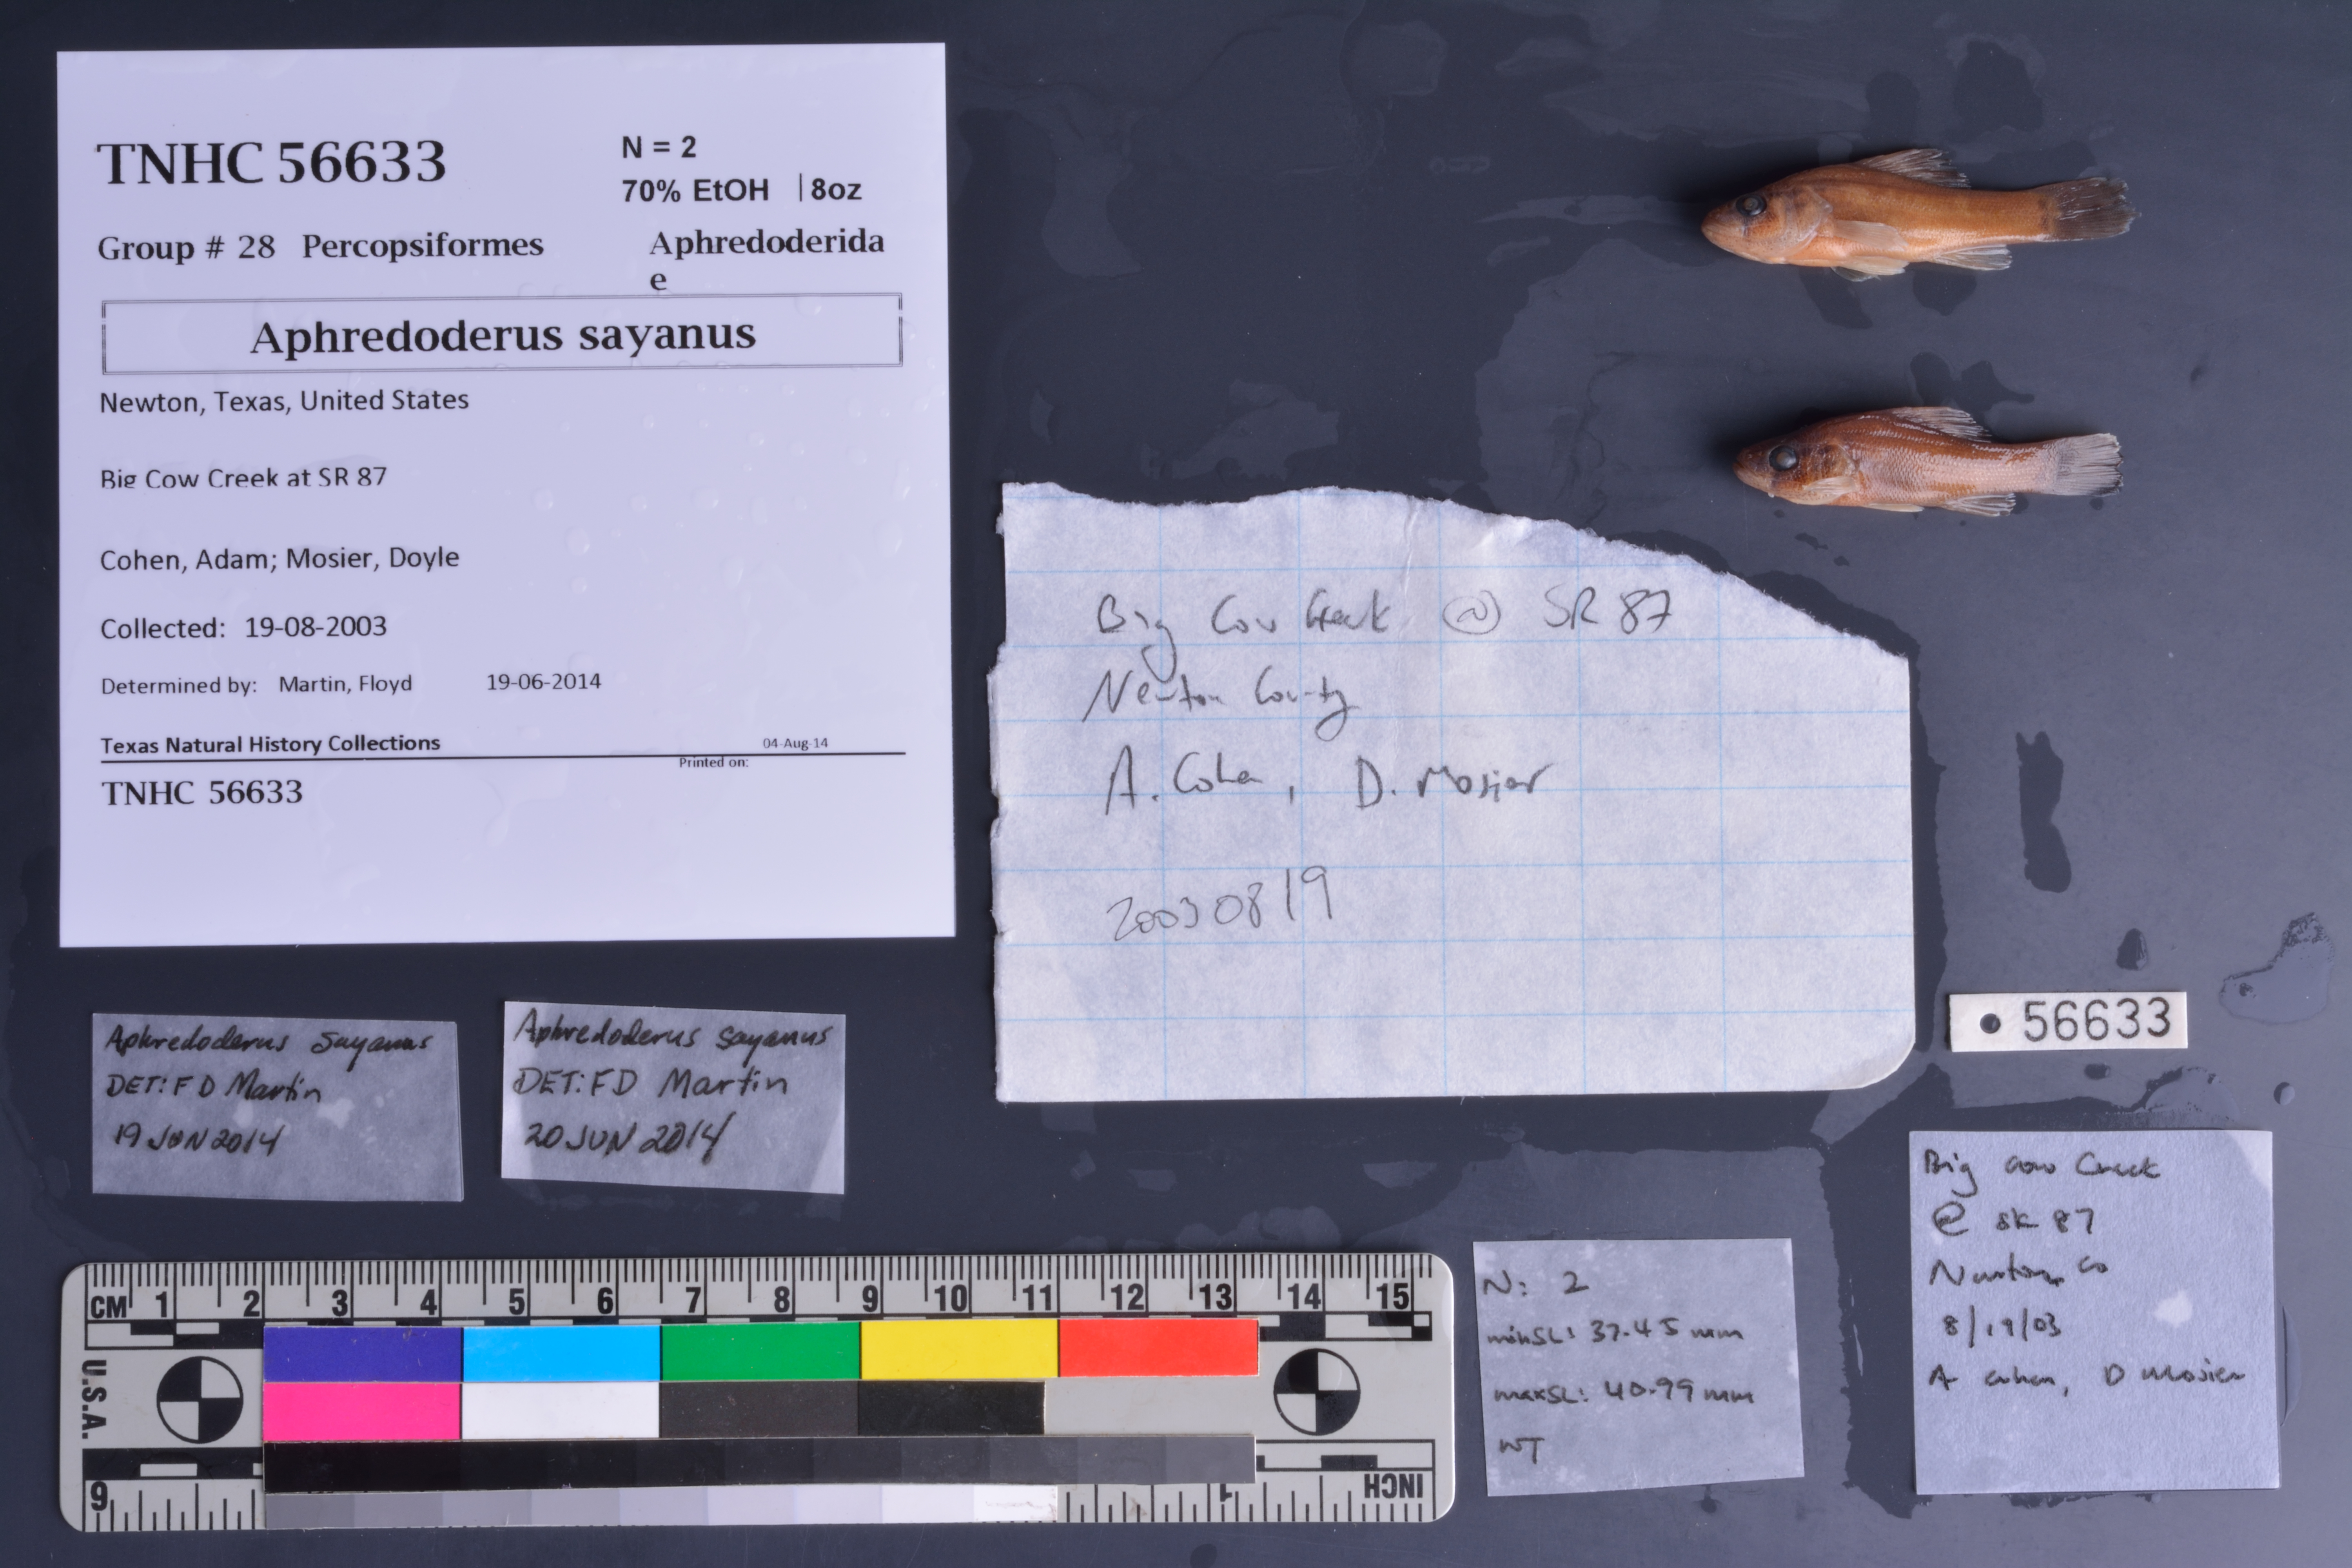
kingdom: Animalia
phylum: Chordata
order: Percopsiformes
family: Aphredoderidae
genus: Aphredoderus
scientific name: Aphredoderus sayanus
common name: Pirate perch
